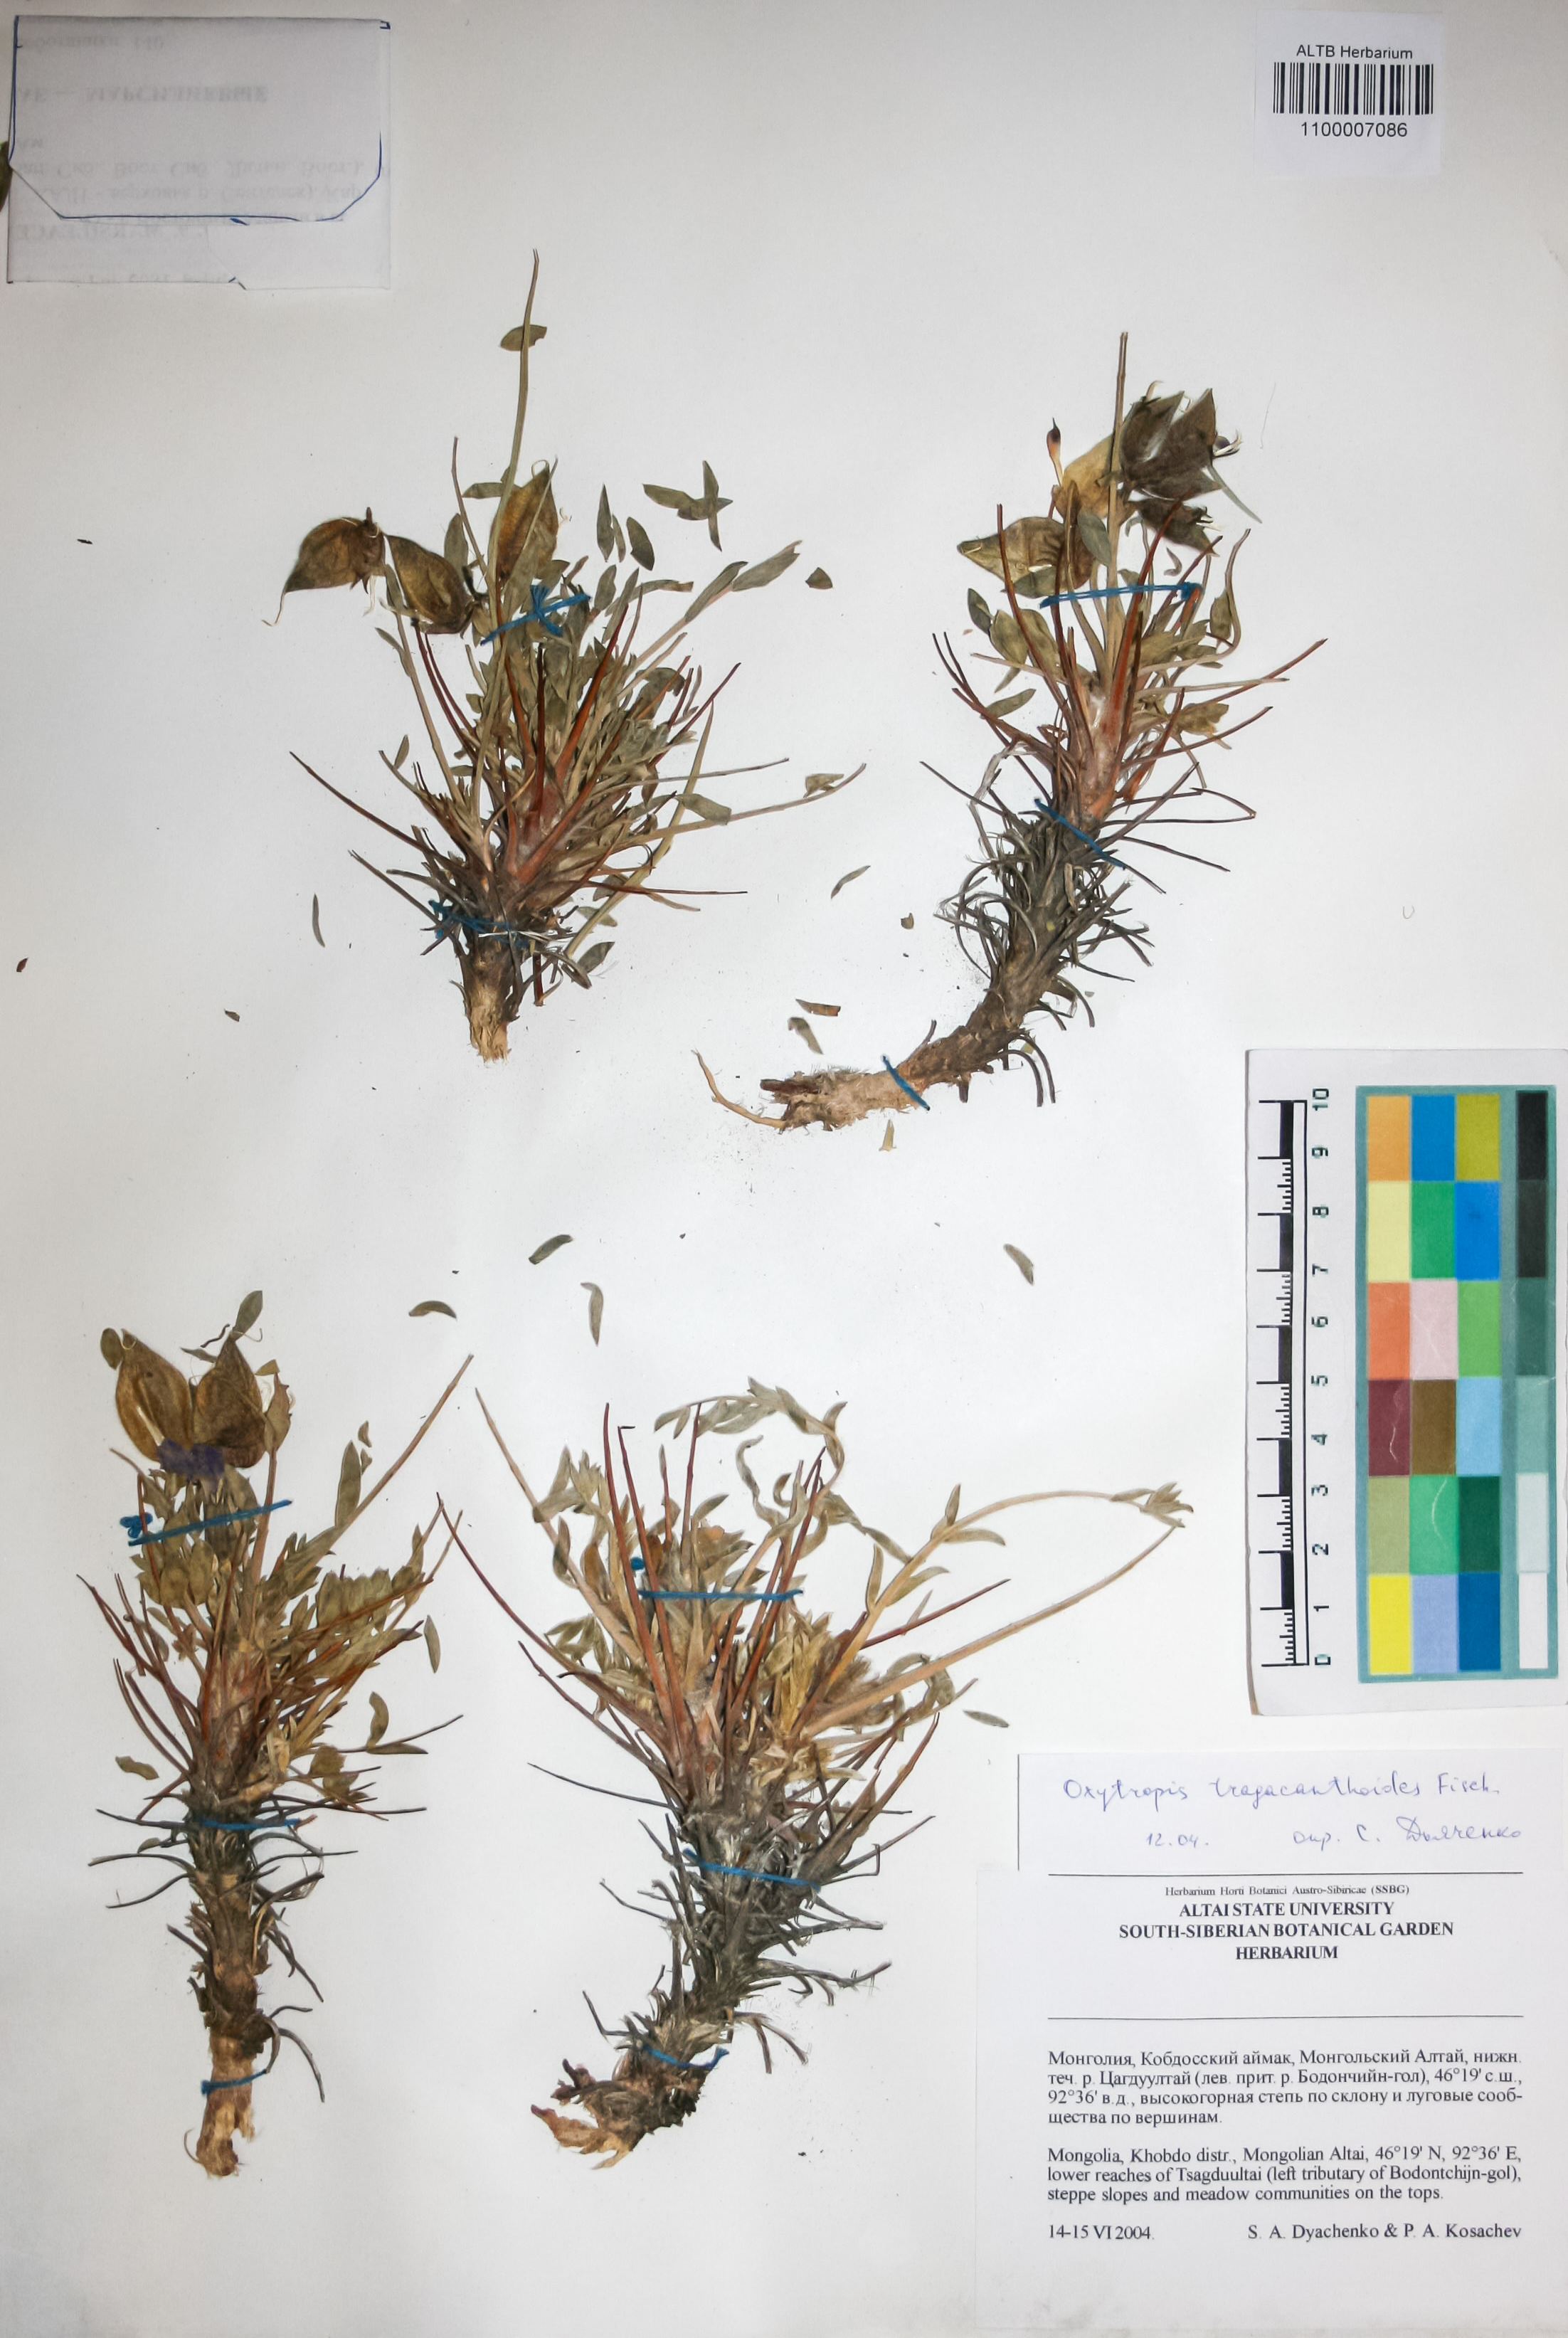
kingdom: Plantae
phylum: Tracheophyta
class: Magnoliopsida
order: Fabales
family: Fabaceae
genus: Oxytropis
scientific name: Oxytropis tragacanthoides
